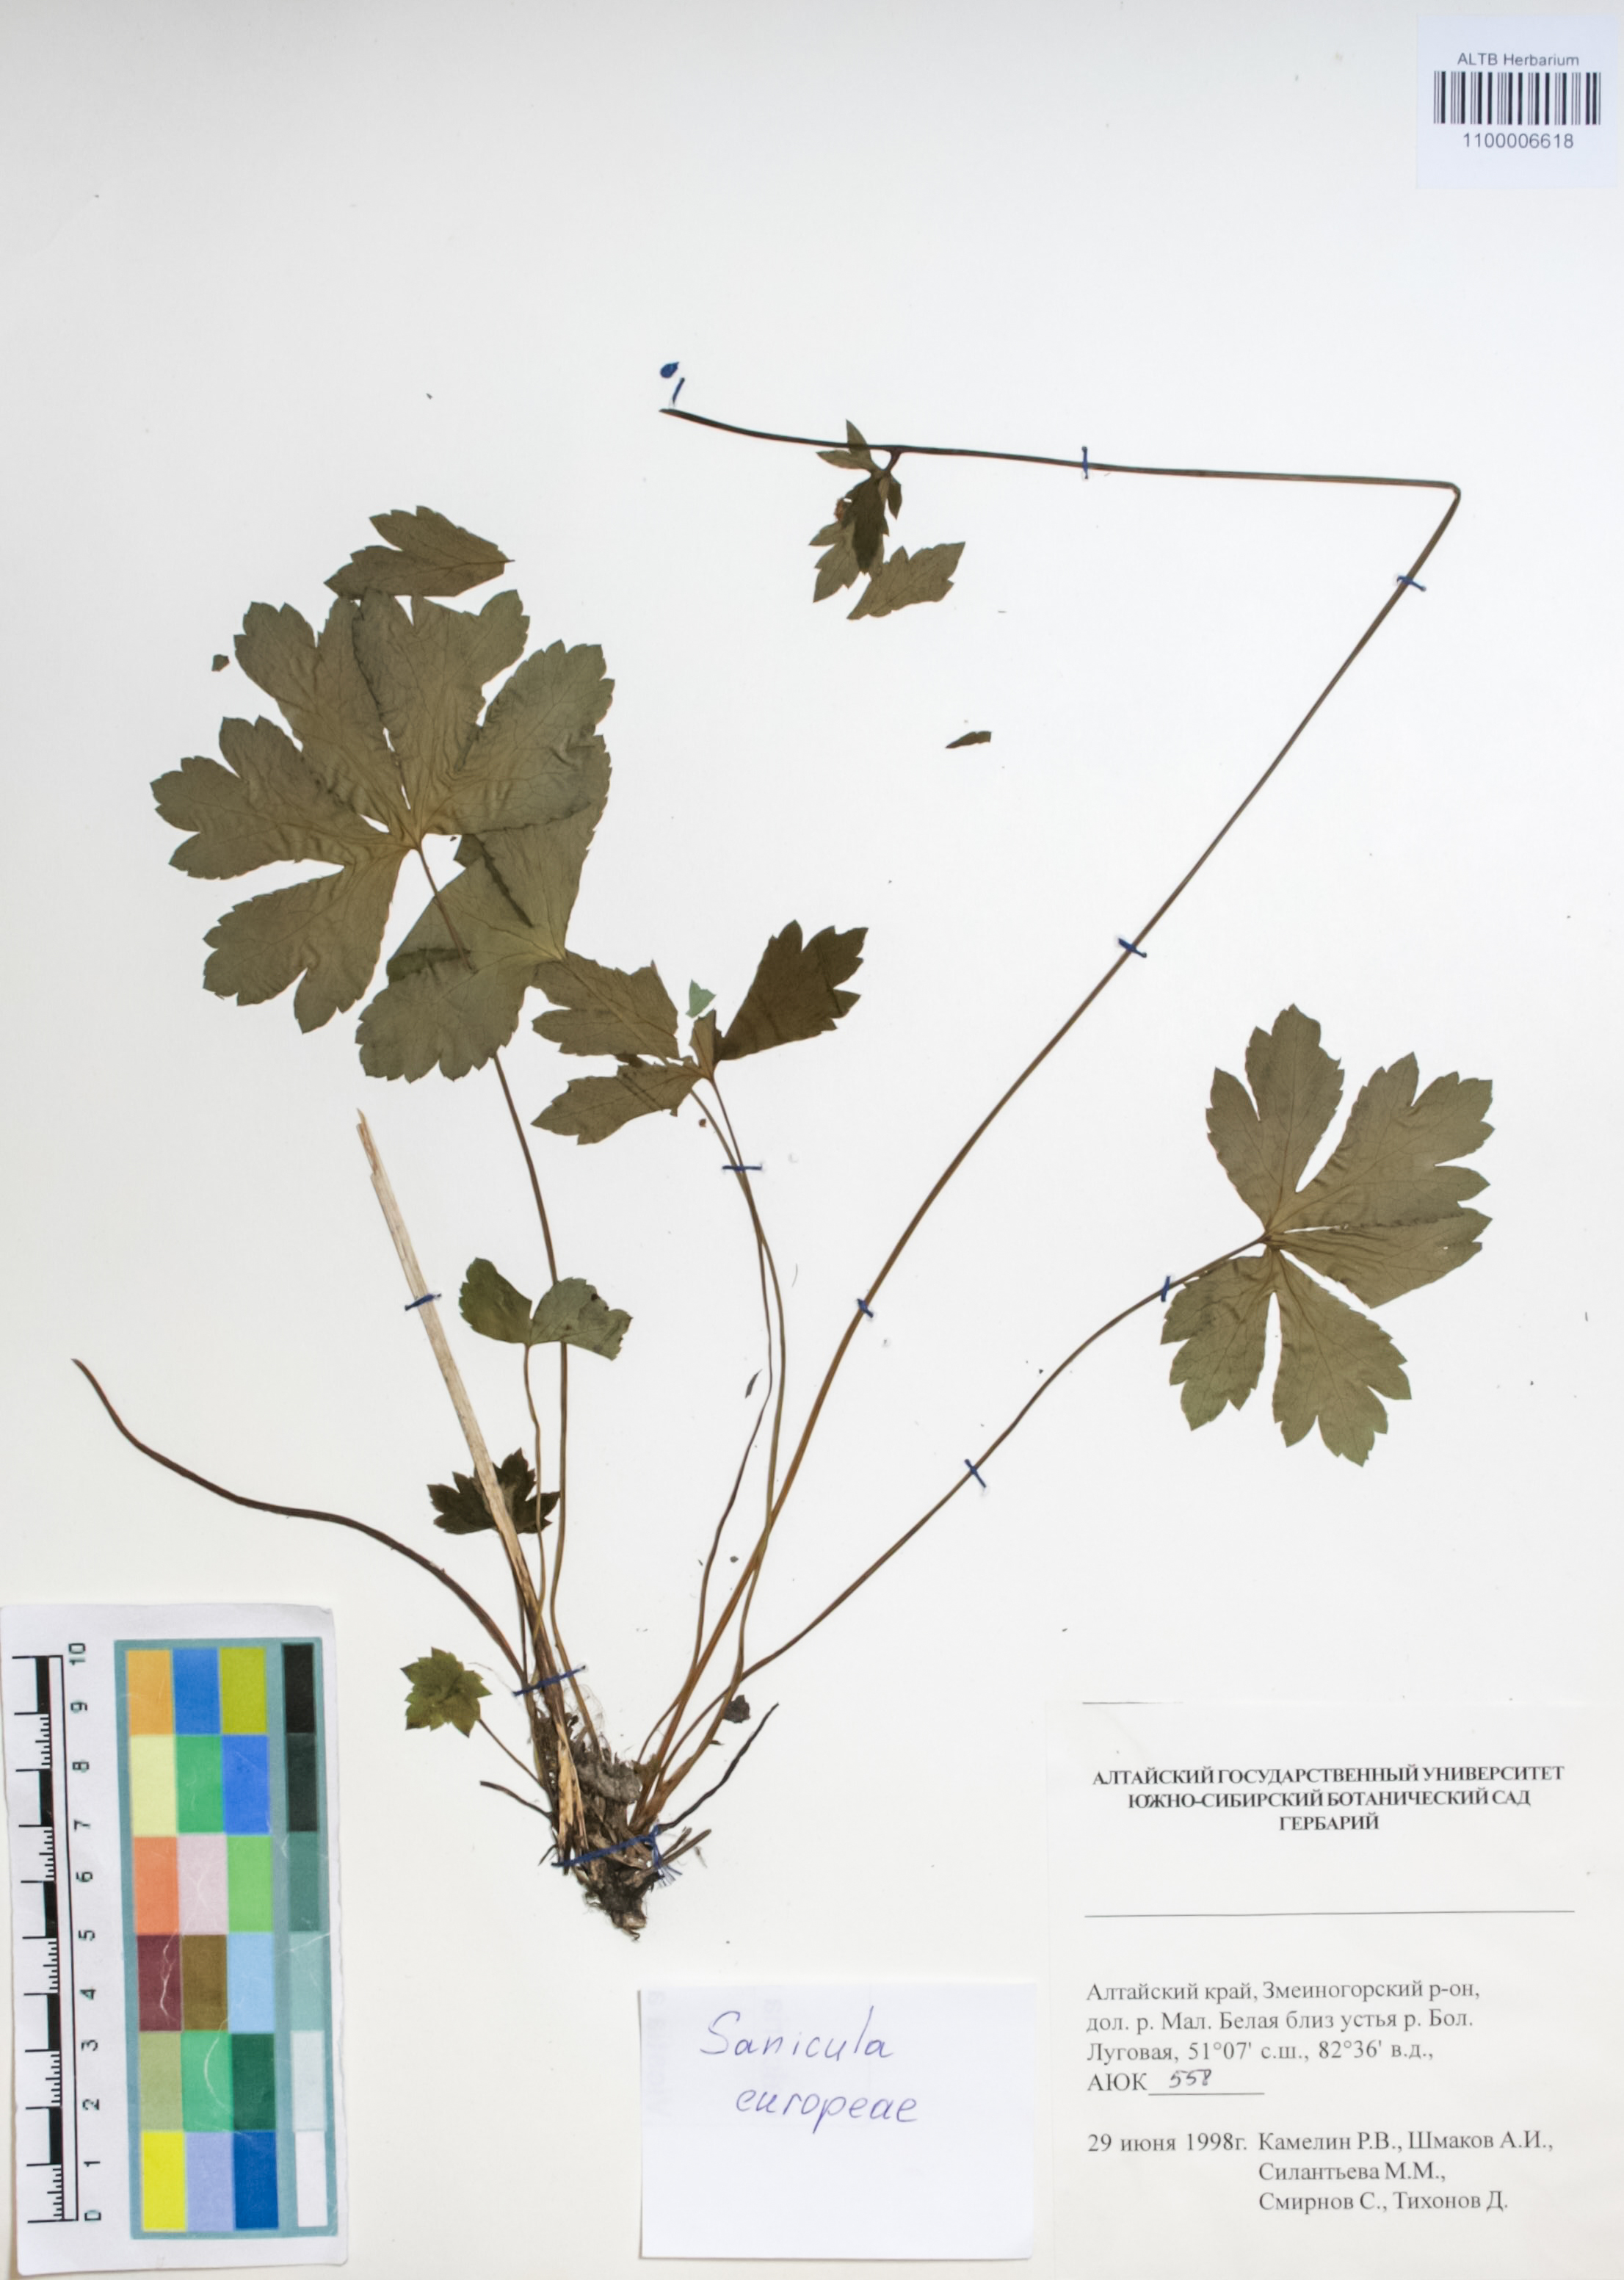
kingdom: Plantae
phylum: Tracheophyta
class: Magnoliopsida
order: Apiales
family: Apiaceae
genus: Sanicula
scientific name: Sanicula europaea
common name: Sanicle
